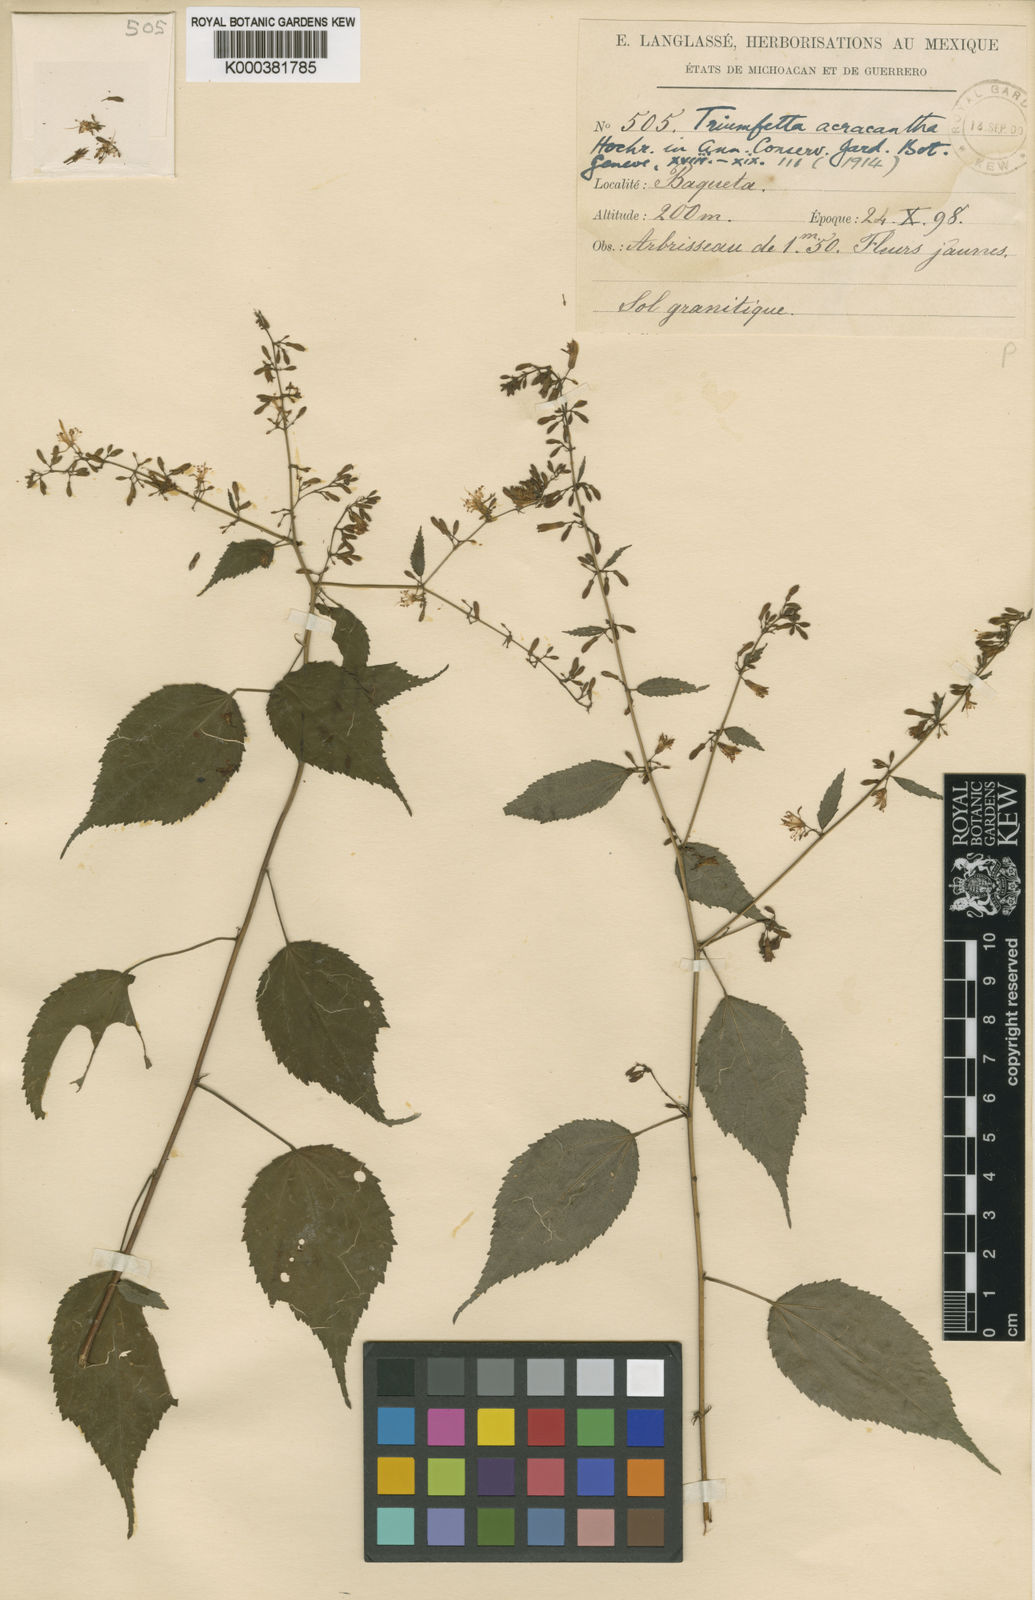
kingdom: Plantae
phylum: Tracheophyta
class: Magnoliopsida
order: Malvales
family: Malvaceae
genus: Triumfetta
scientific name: Triumfetta acracantha
